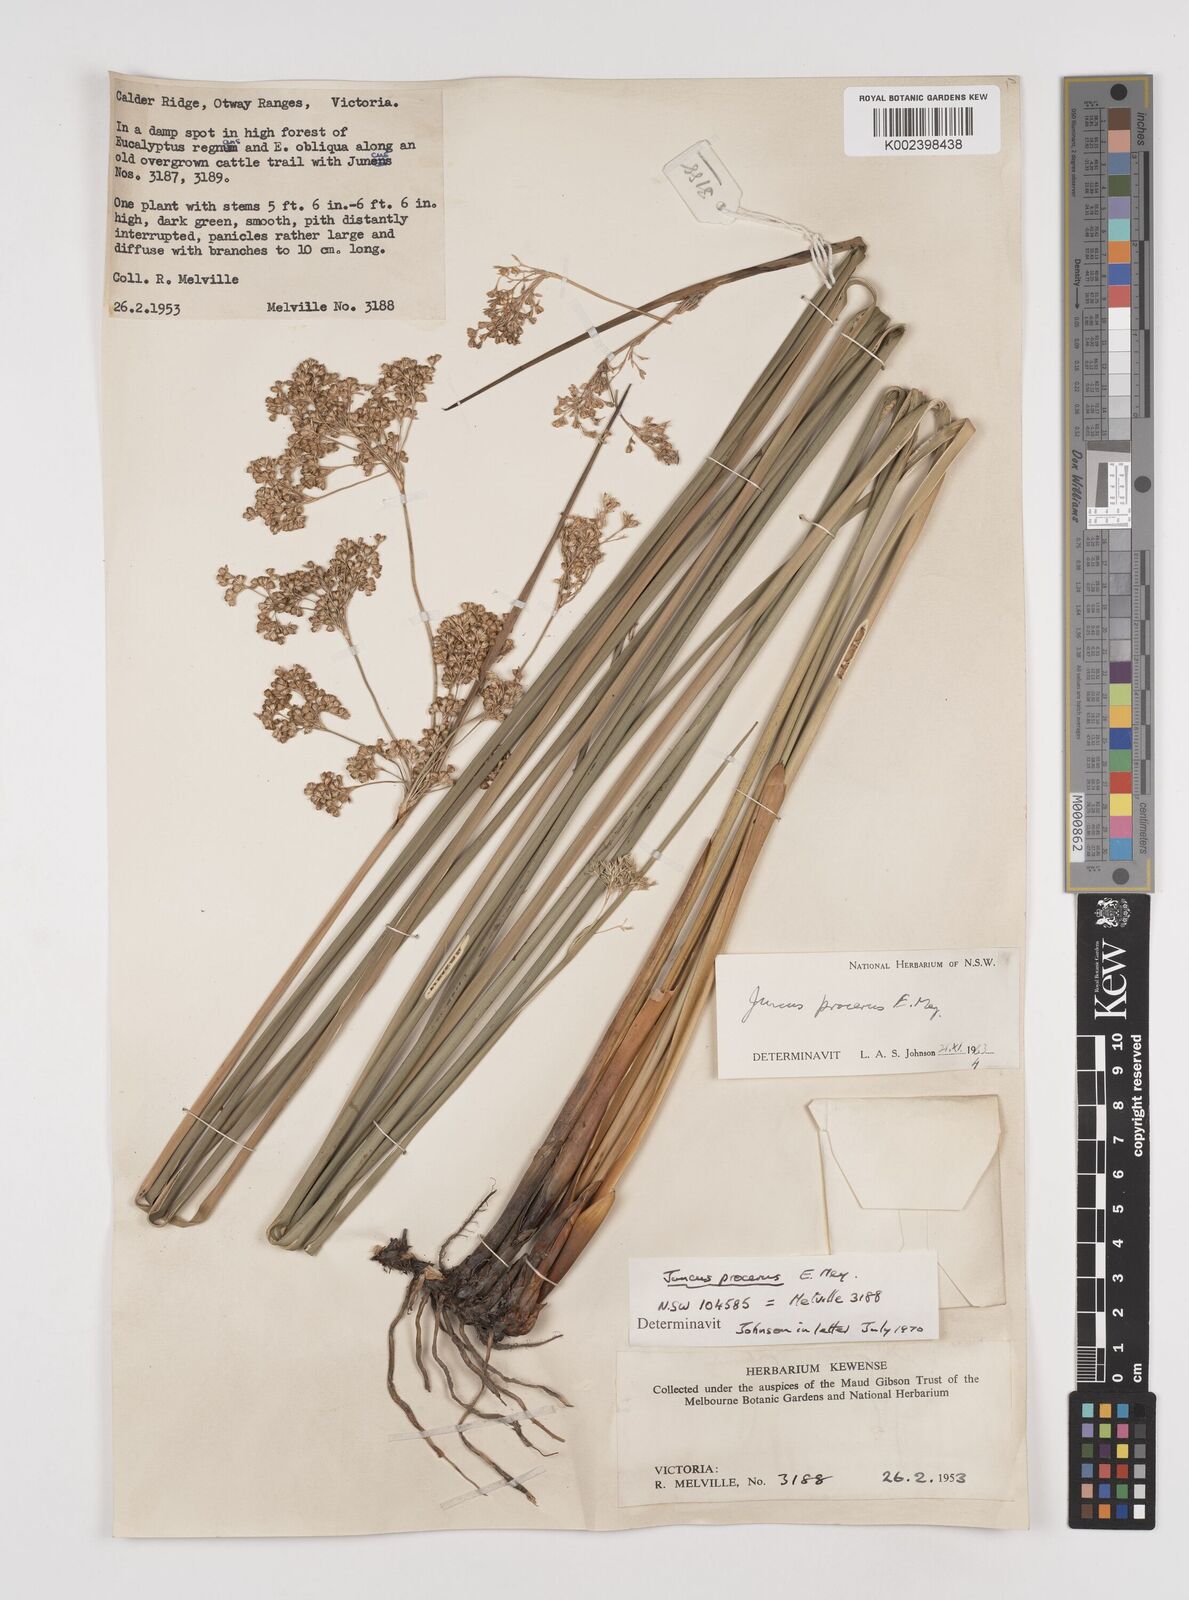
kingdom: Plantae
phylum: Tracheophyta
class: Liliopsida
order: Poales
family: Juncaceae
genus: Juncus
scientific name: Juncus procerus
